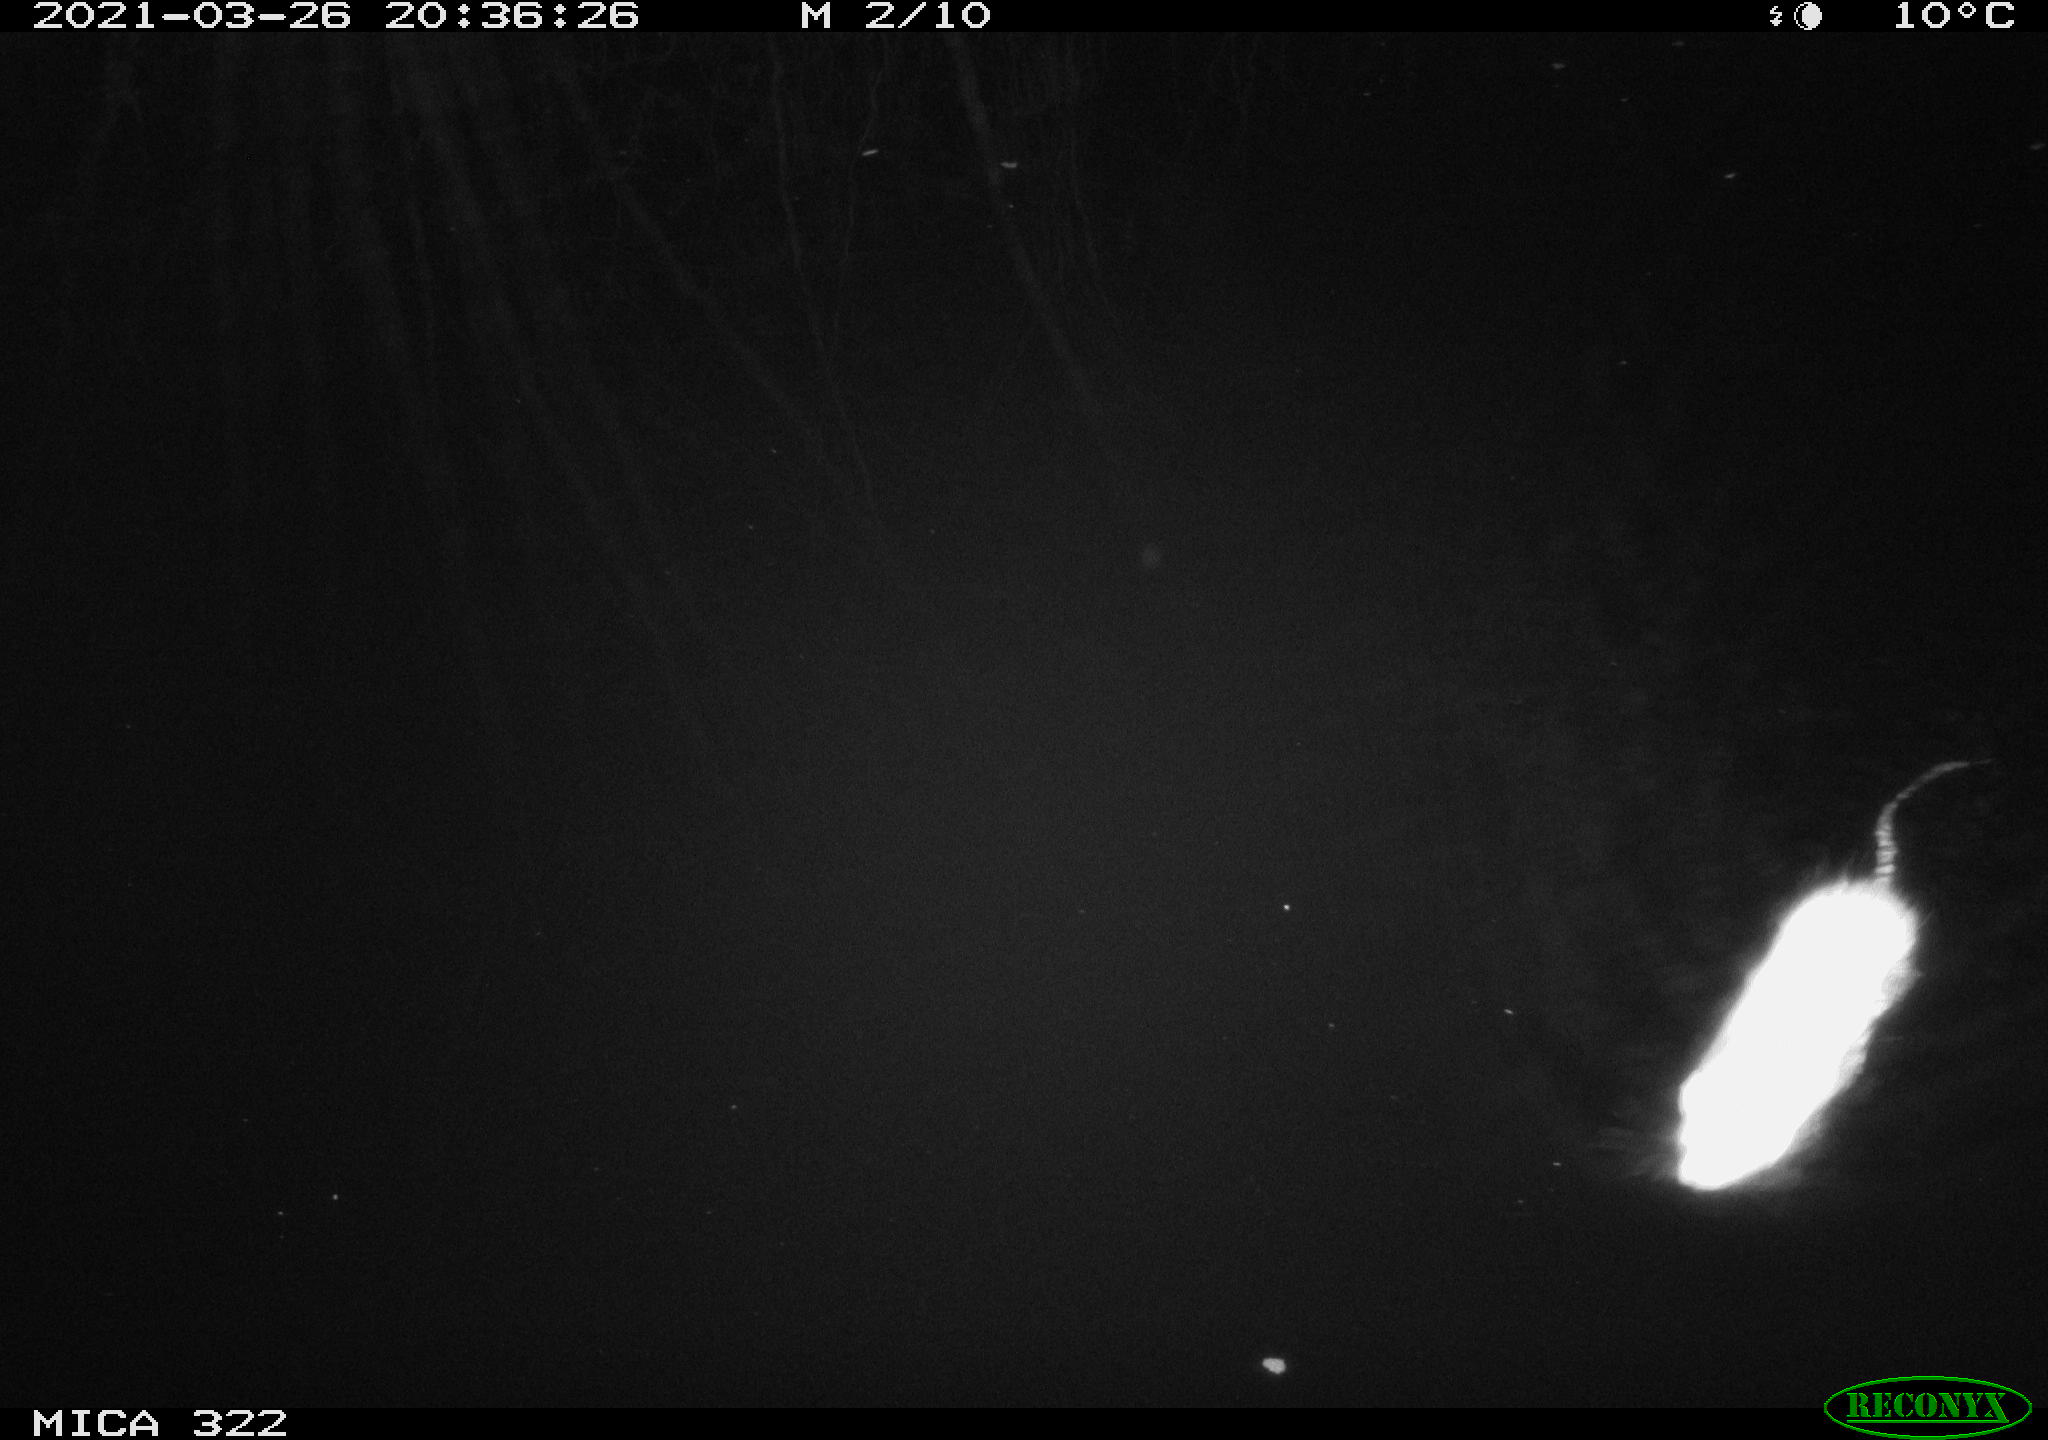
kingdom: Animalia
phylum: Chordata
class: Mammalia
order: Rodentia
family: Muridae
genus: Rattus
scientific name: Rattus norvegicus
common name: Brown rat
